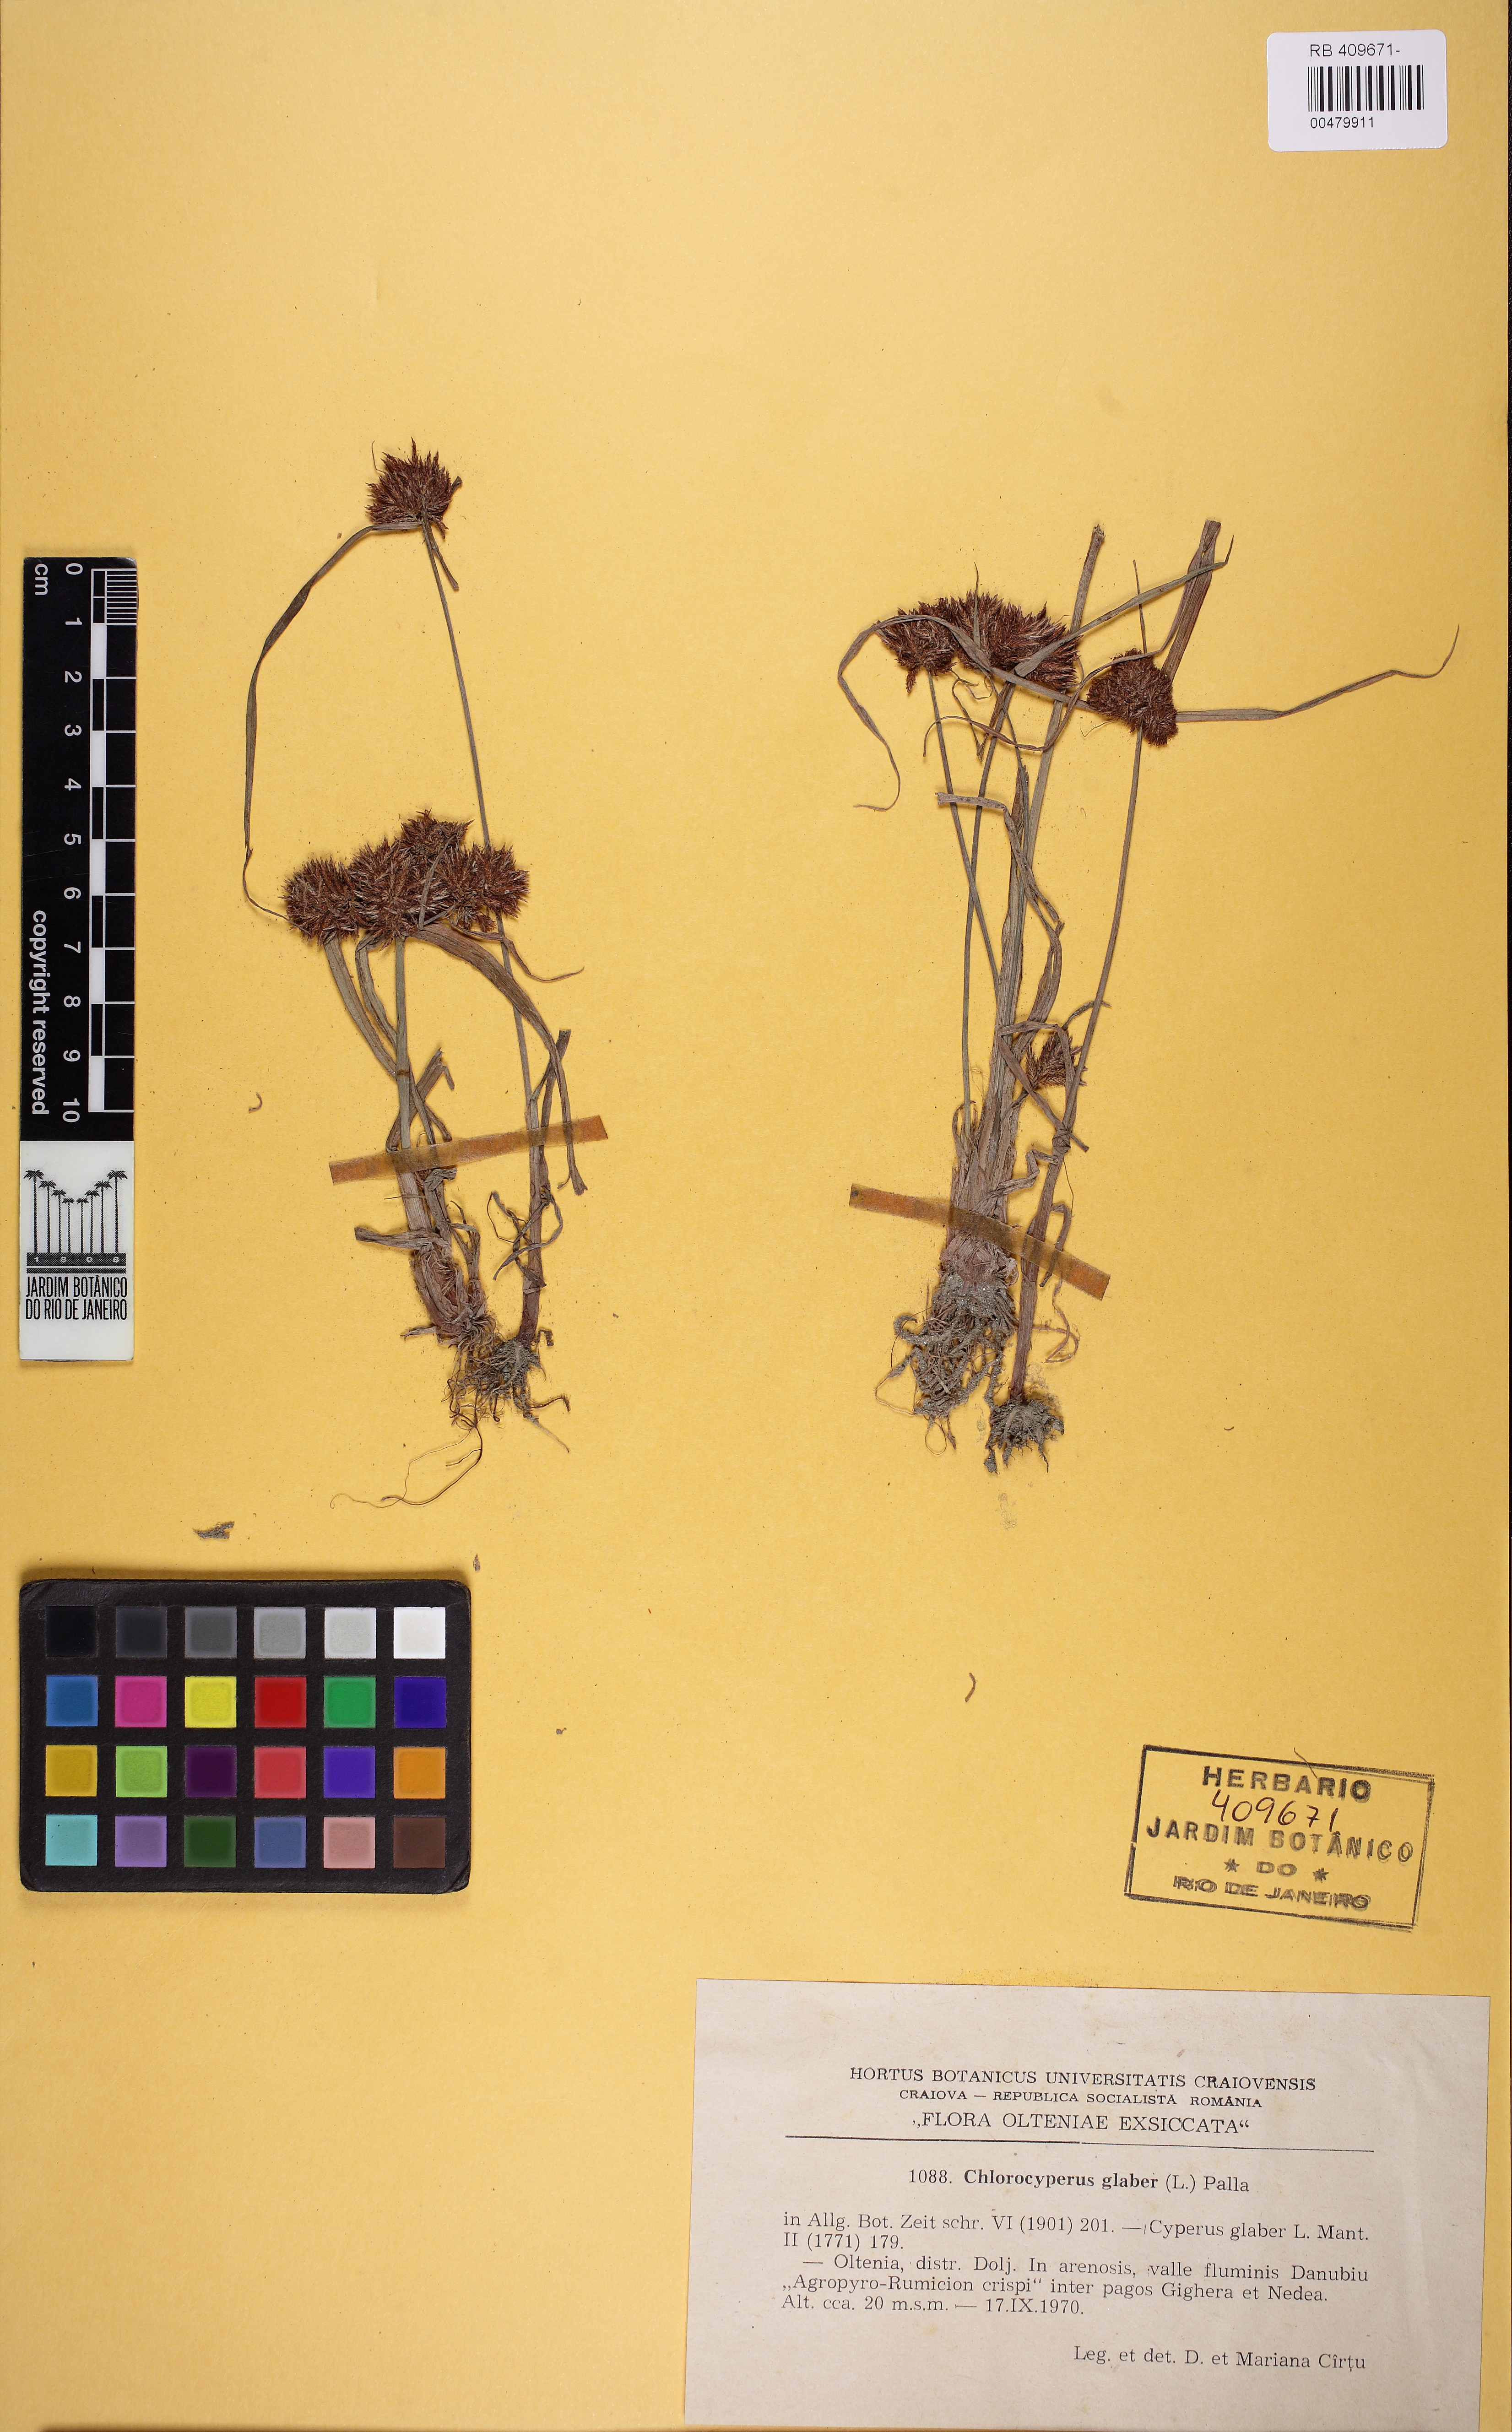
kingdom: Plantae
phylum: Tracheophyta
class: Liliopsida
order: Poales
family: Cyperaceae
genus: Cyperus
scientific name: Cyperus glaber
